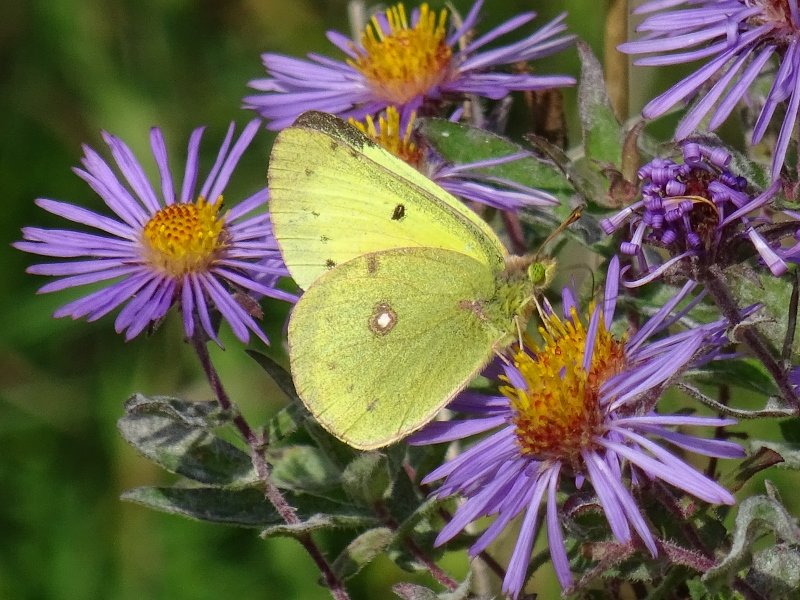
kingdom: Animalia
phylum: Arthropoda
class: Insecta
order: Lepidoptera
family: Pieridae
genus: Colias
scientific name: Colias philodice
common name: Clouded Sulphur
